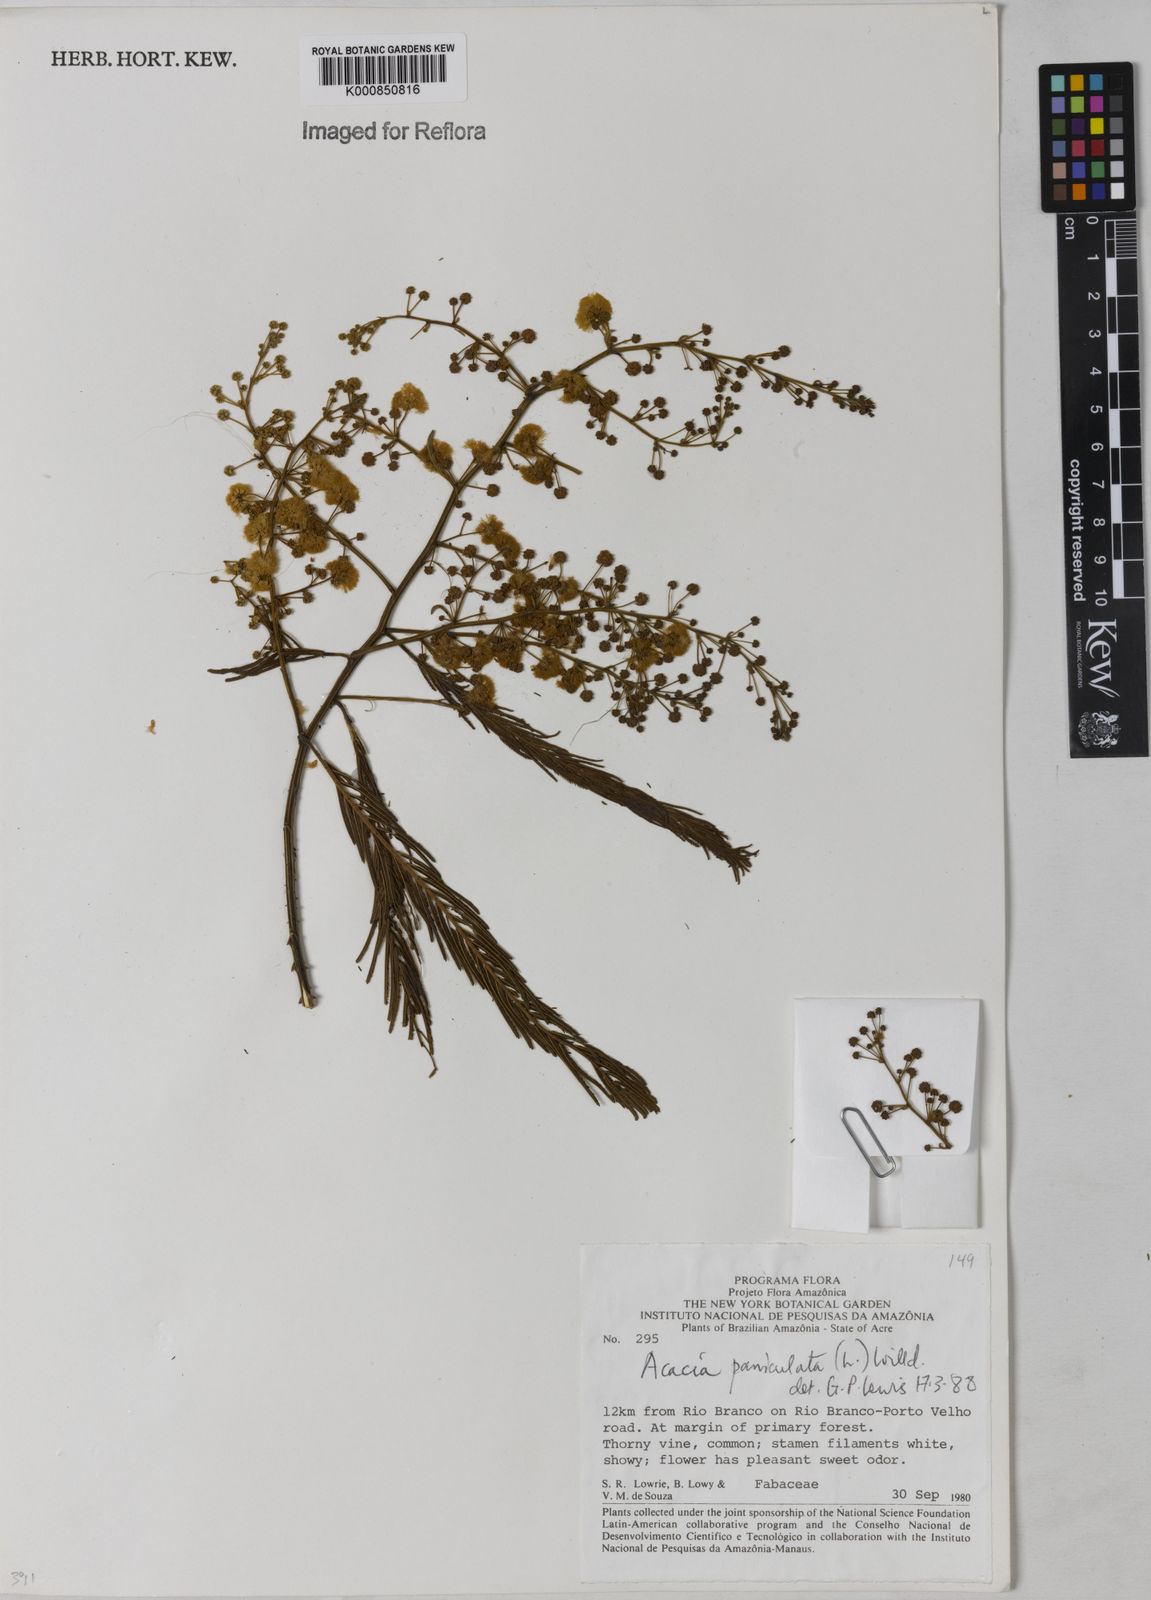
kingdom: Plantae
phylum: Tracheophyta
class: Magnoliopsida
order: Fabales
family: Fabaceae
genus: Senegalia
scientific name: Senegalia tenuifolia
